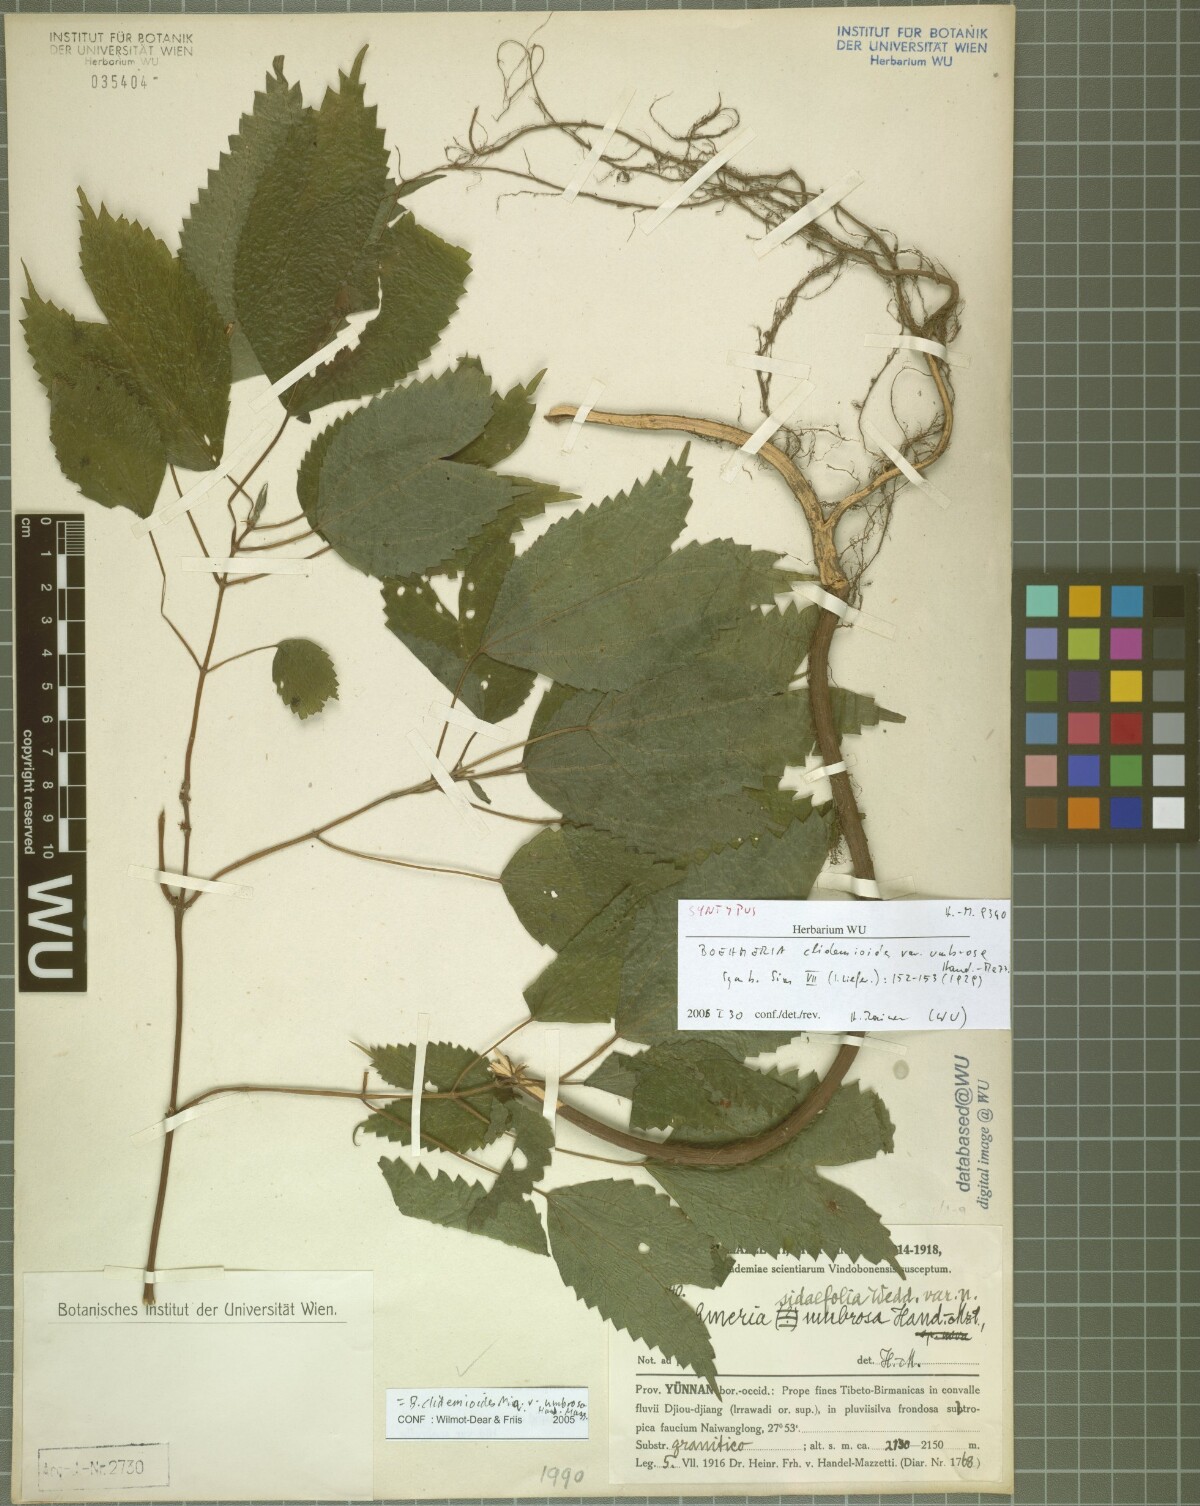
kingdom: Plantae
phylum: Tracheophyta
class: Magnoliopsida
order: Rosales
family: Urticaceae
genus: Boehmeria
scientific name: Boehmeria clidemioides
